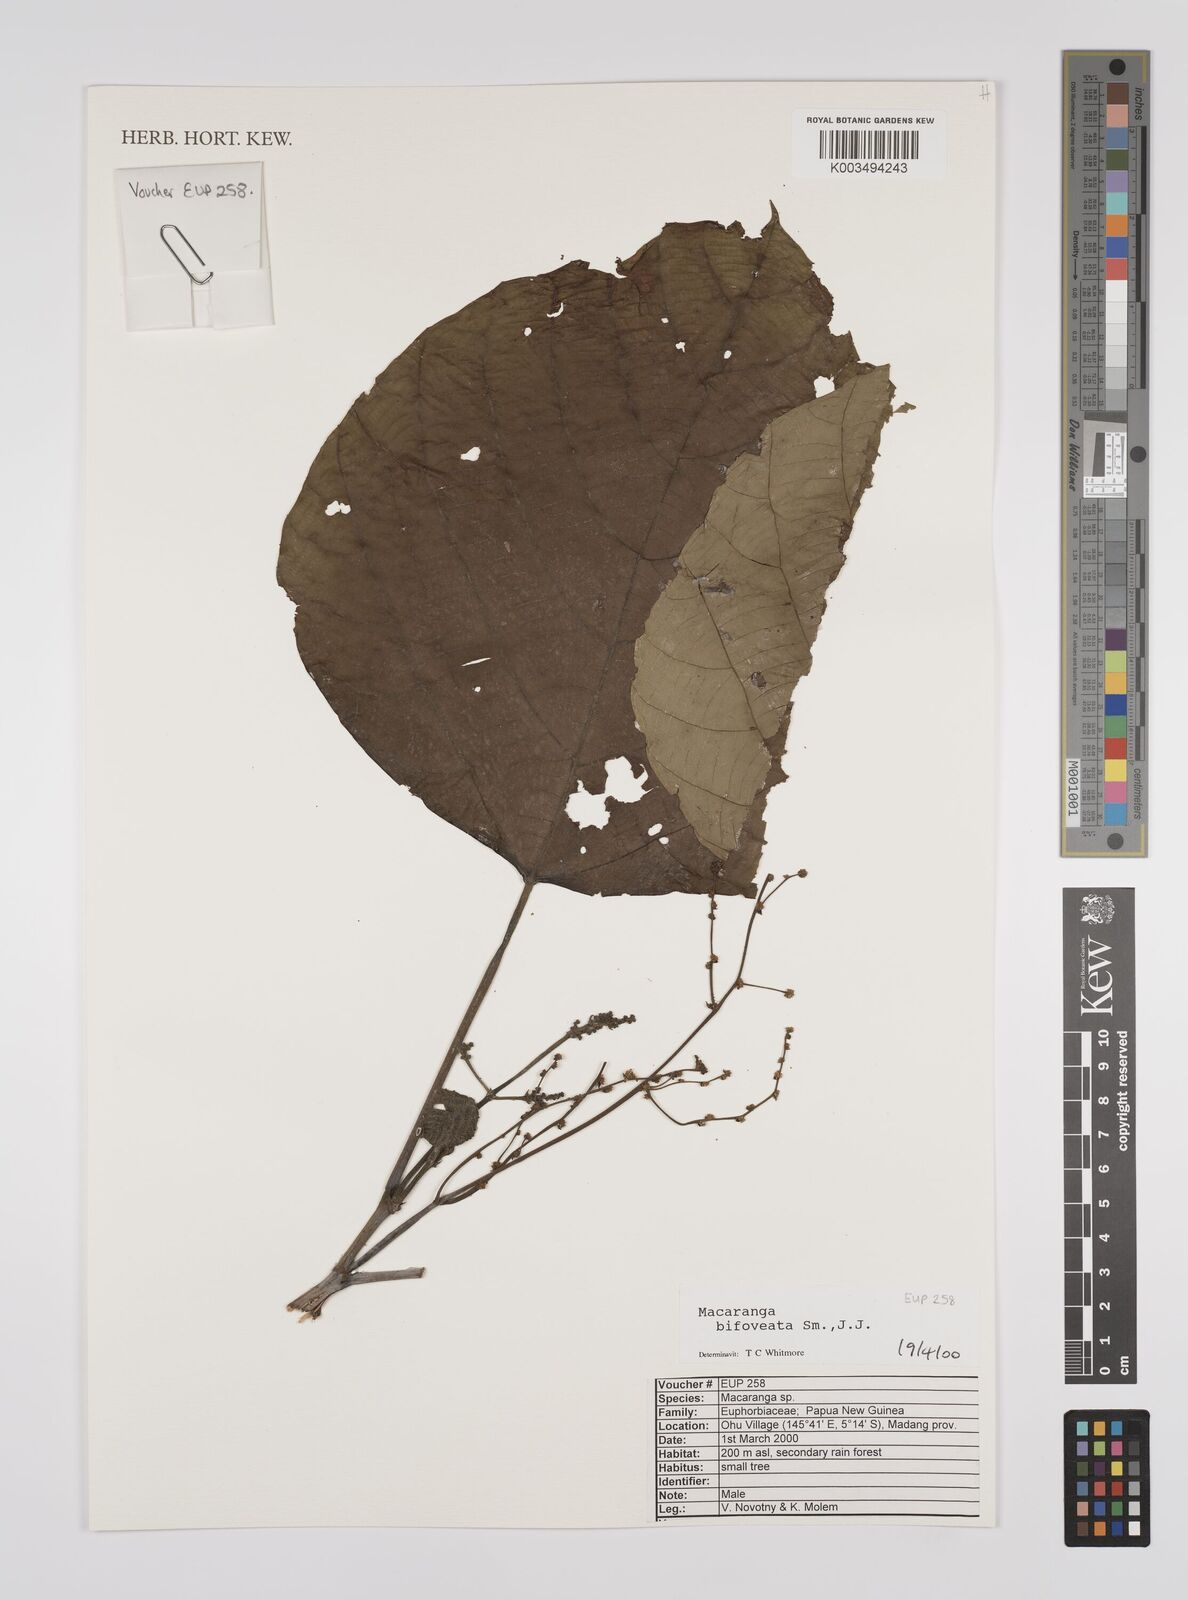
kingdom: Plantae
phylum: Tracheophyta
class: Magnoliopsida
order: Malpighiales
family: Euphorbiaceae
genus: Macaranga
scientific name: Macaranga bifoveata
